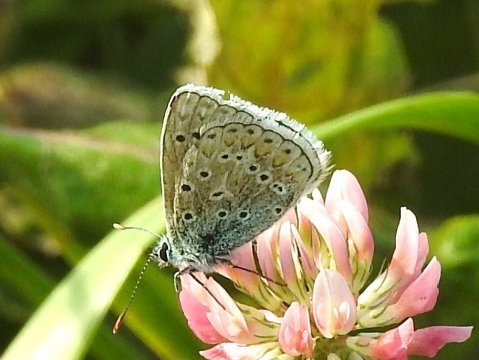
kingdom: Animalia
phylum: Arthropoda
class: Insecta
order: Lepidoptera
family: Lycaenidae
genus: Polyommatus
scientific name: Polyommatus icarus
